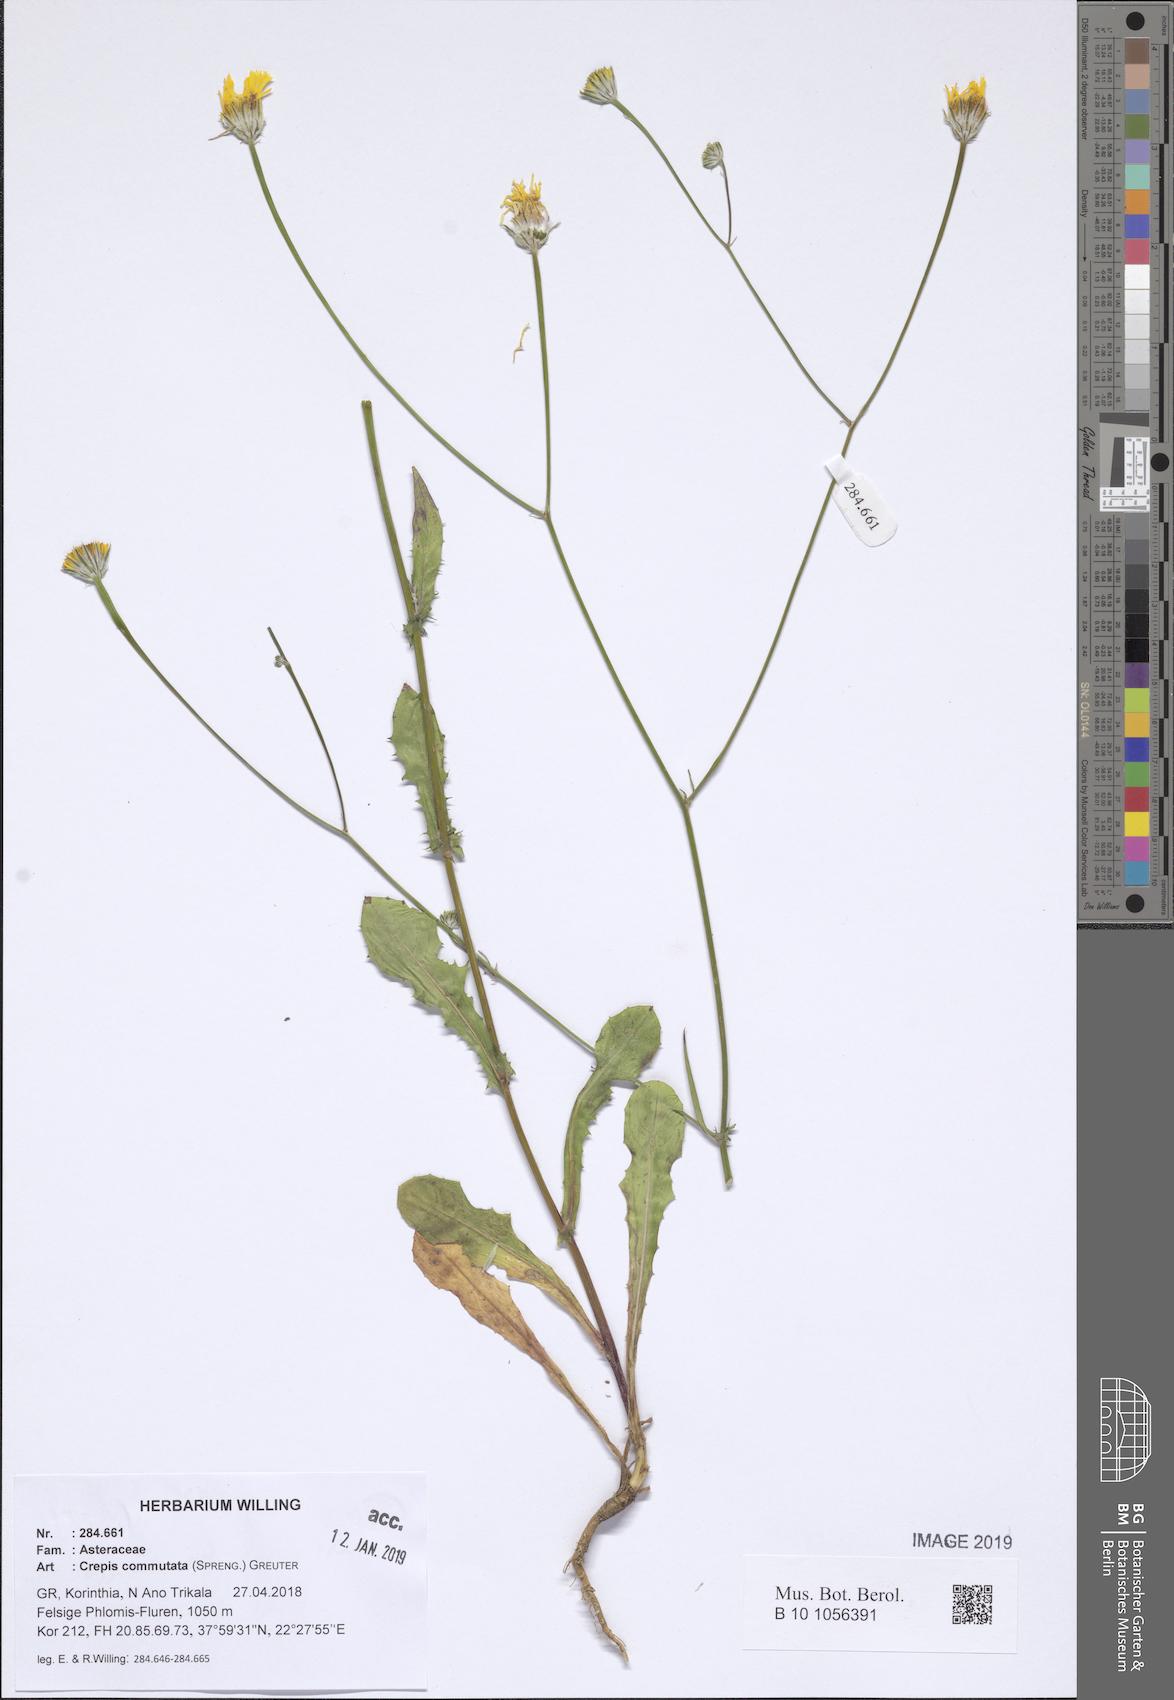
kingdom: Plantae
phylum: Tracheophyta
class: Magnoliopsida
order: Asterales
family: Asteraceae
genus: Crepis
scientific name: Crepis commutata
